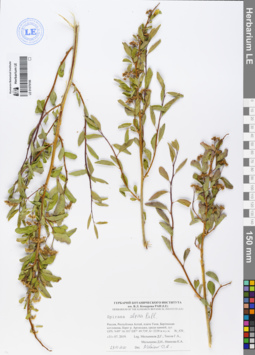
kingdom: Plantae
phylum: Tracheophyta
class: Magnoliopsida
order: Rosales
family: Rosaceae
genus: Spiraea
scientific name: Spiraea alpina
